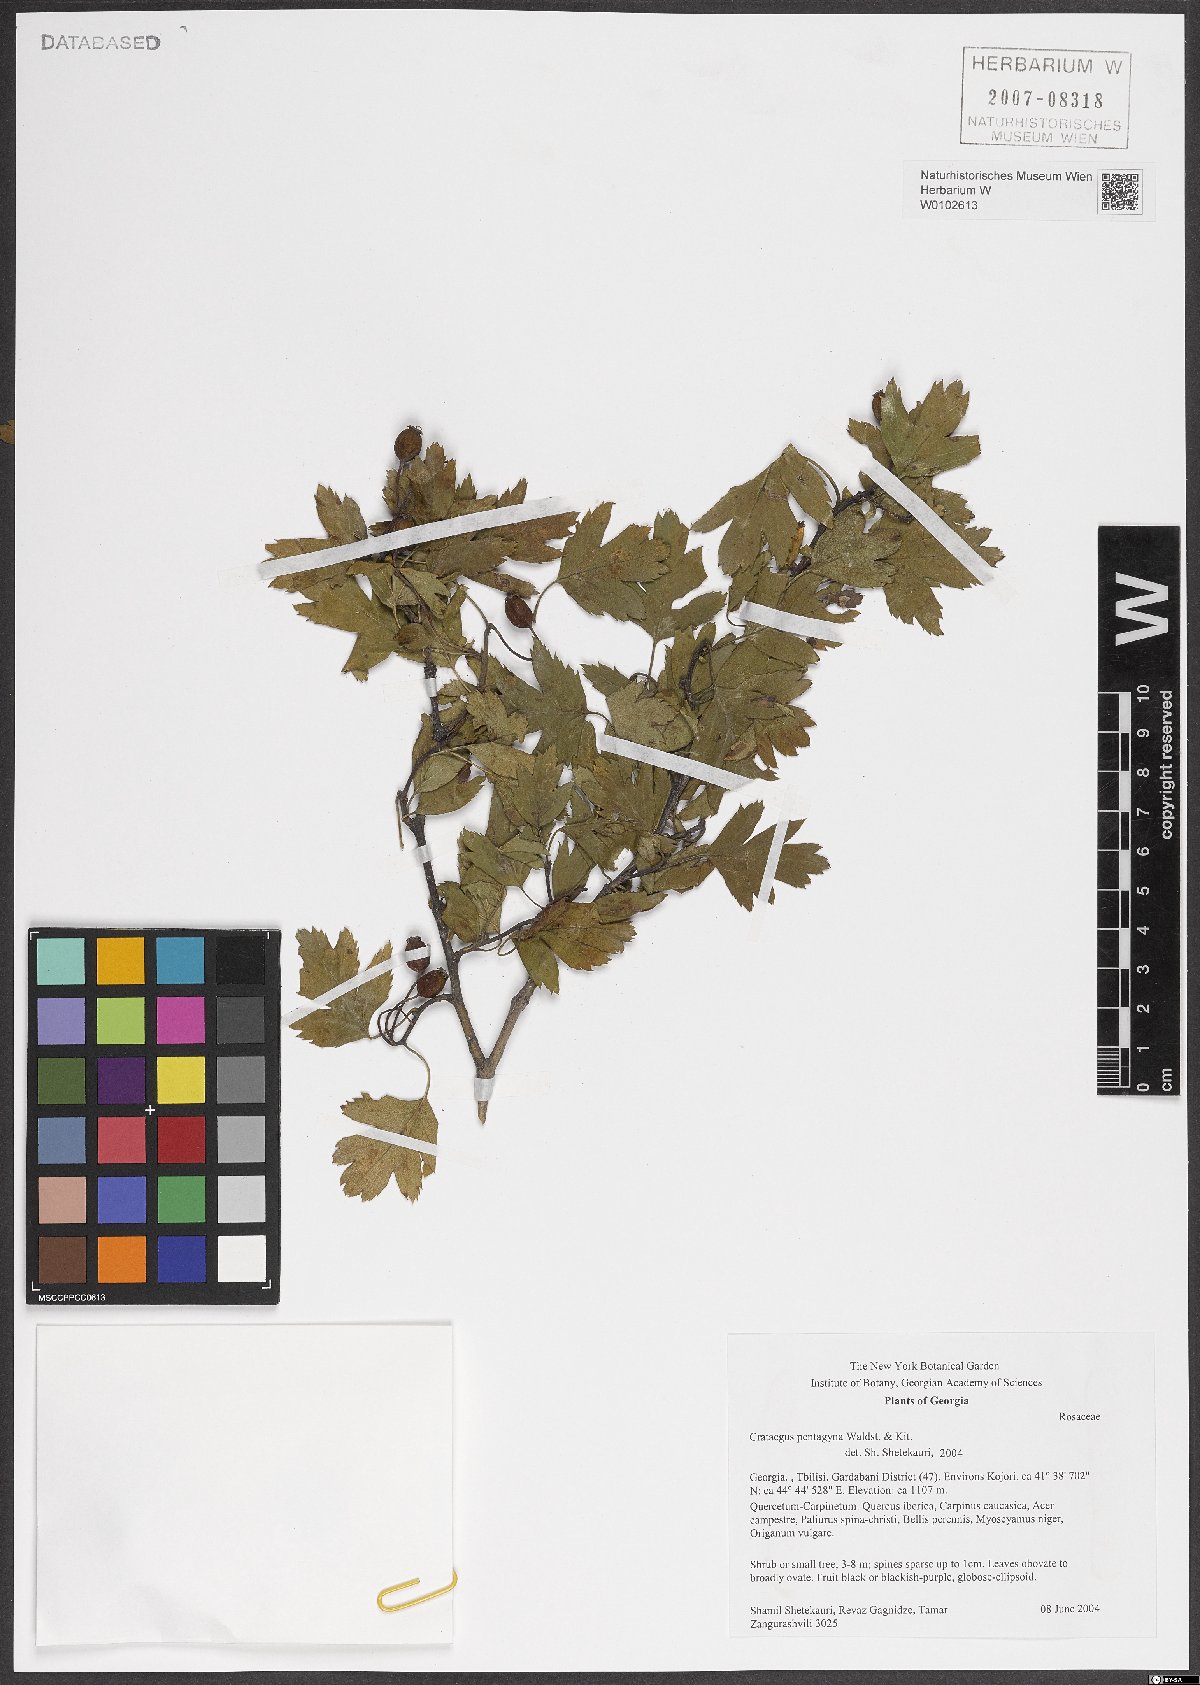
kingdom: Plantae
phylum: Tracheophyta
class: Magnoliopsida
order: Rosales
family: Rosaceae
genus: Crataegus
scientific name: Crataegus pentagyna
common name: Small-flowered black hawthorn
